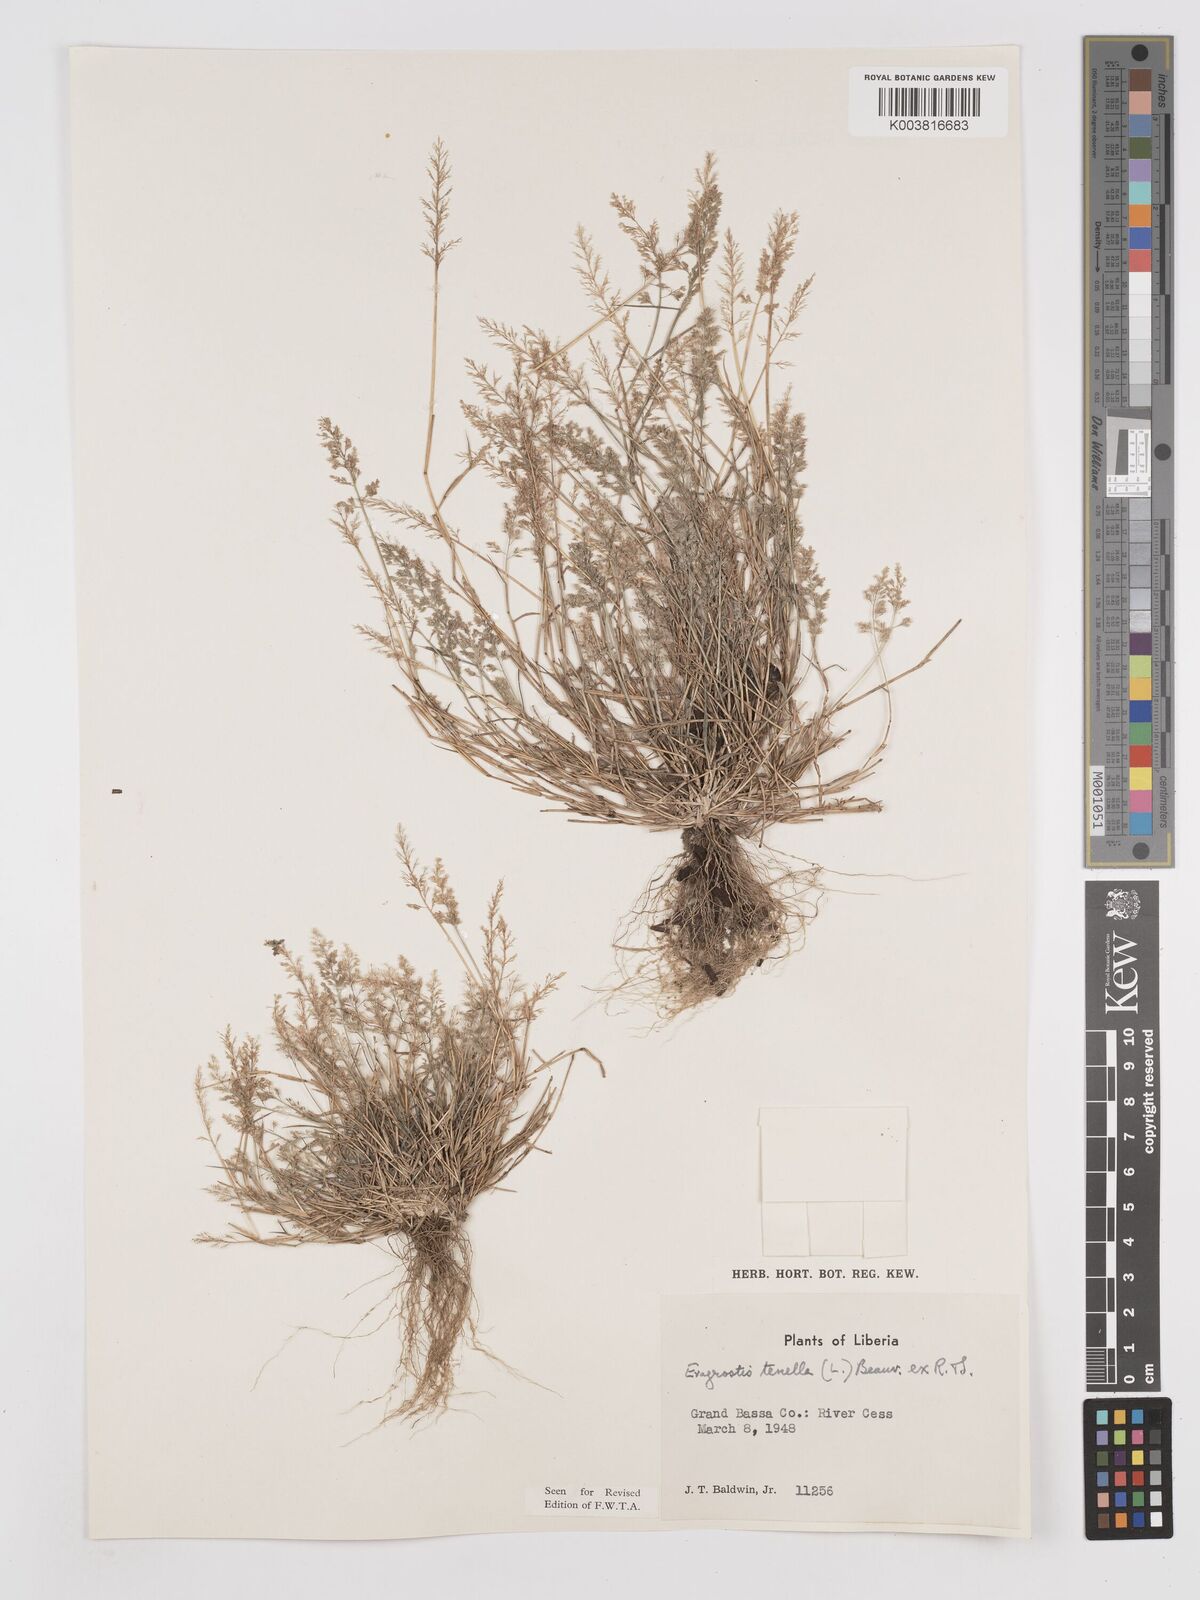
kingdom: Plantae
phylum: Tracheophyta
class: Liliopsida
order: Poales
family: Poaceae
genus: Eragrostis
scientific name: Eragrostis tenella
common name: Japanese lovegrass
